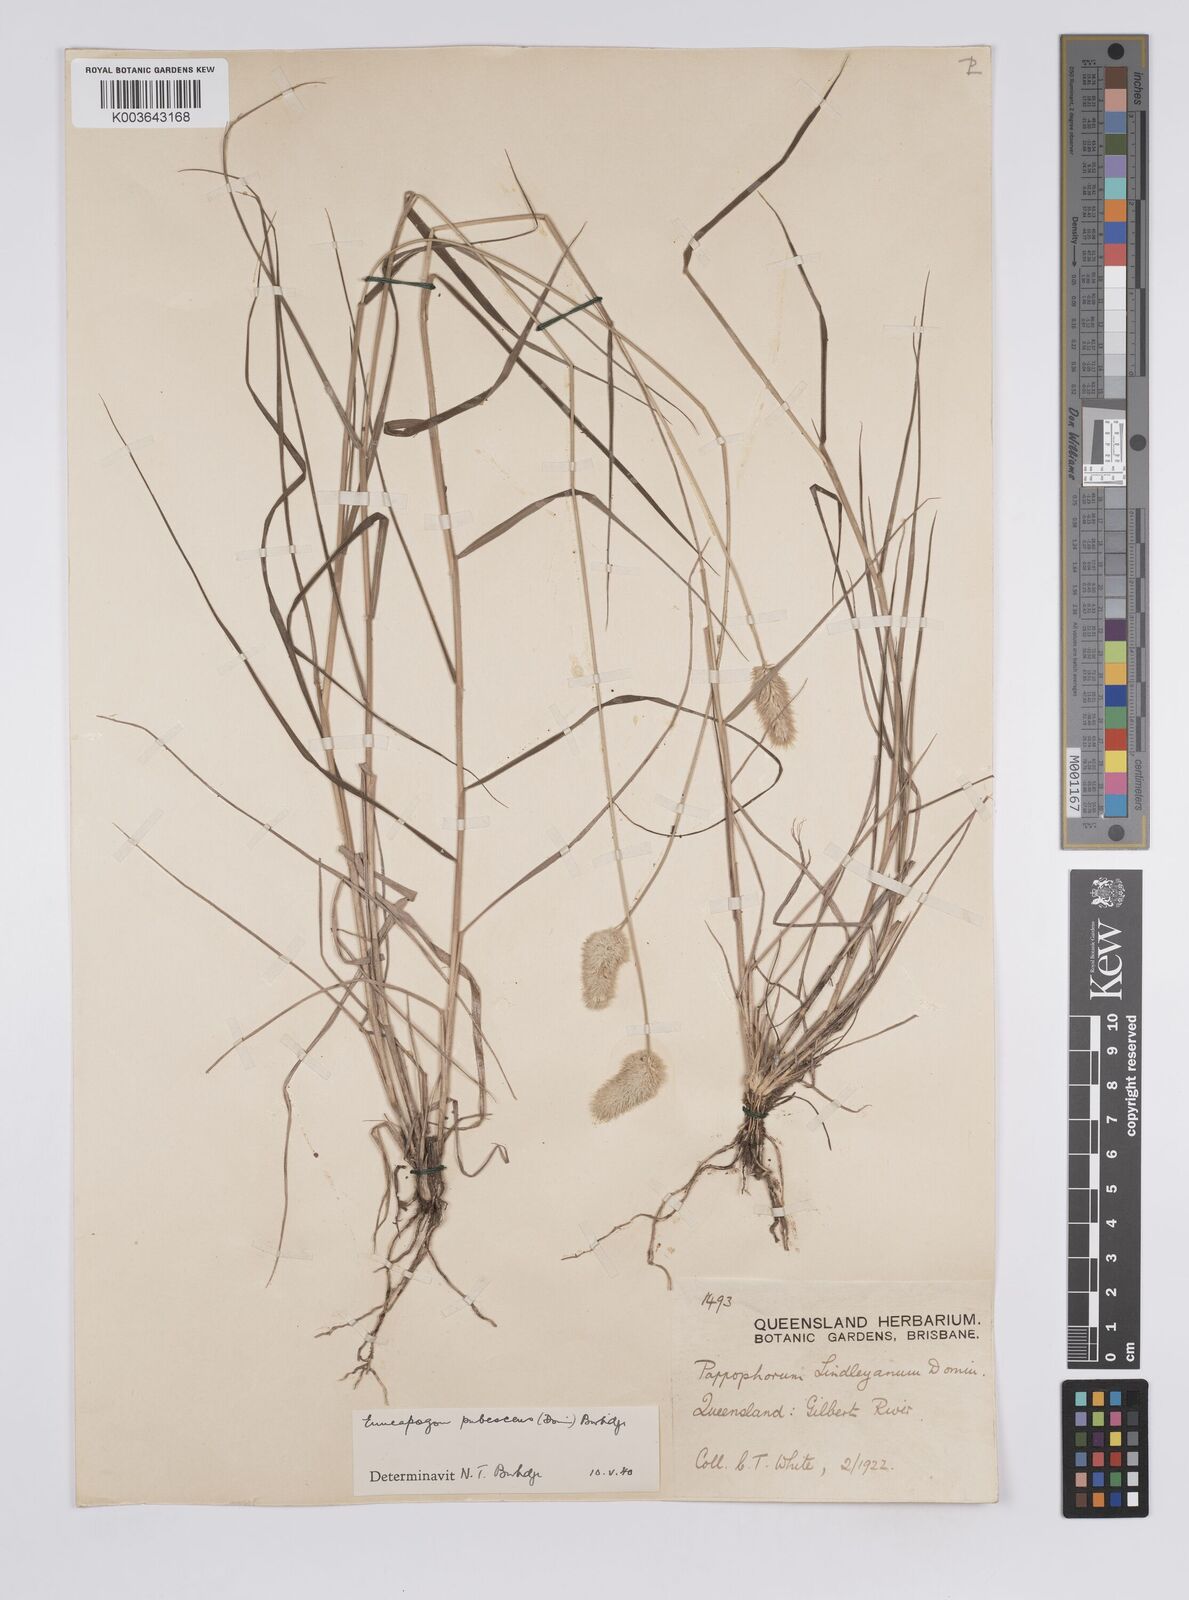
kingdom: Plantae
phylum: Tracheophyta
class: Liliopsida
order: Poales
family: Poaceae
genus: Enneapogon
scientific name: Enneapogon lindleyanus
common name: Conetop nineawn
